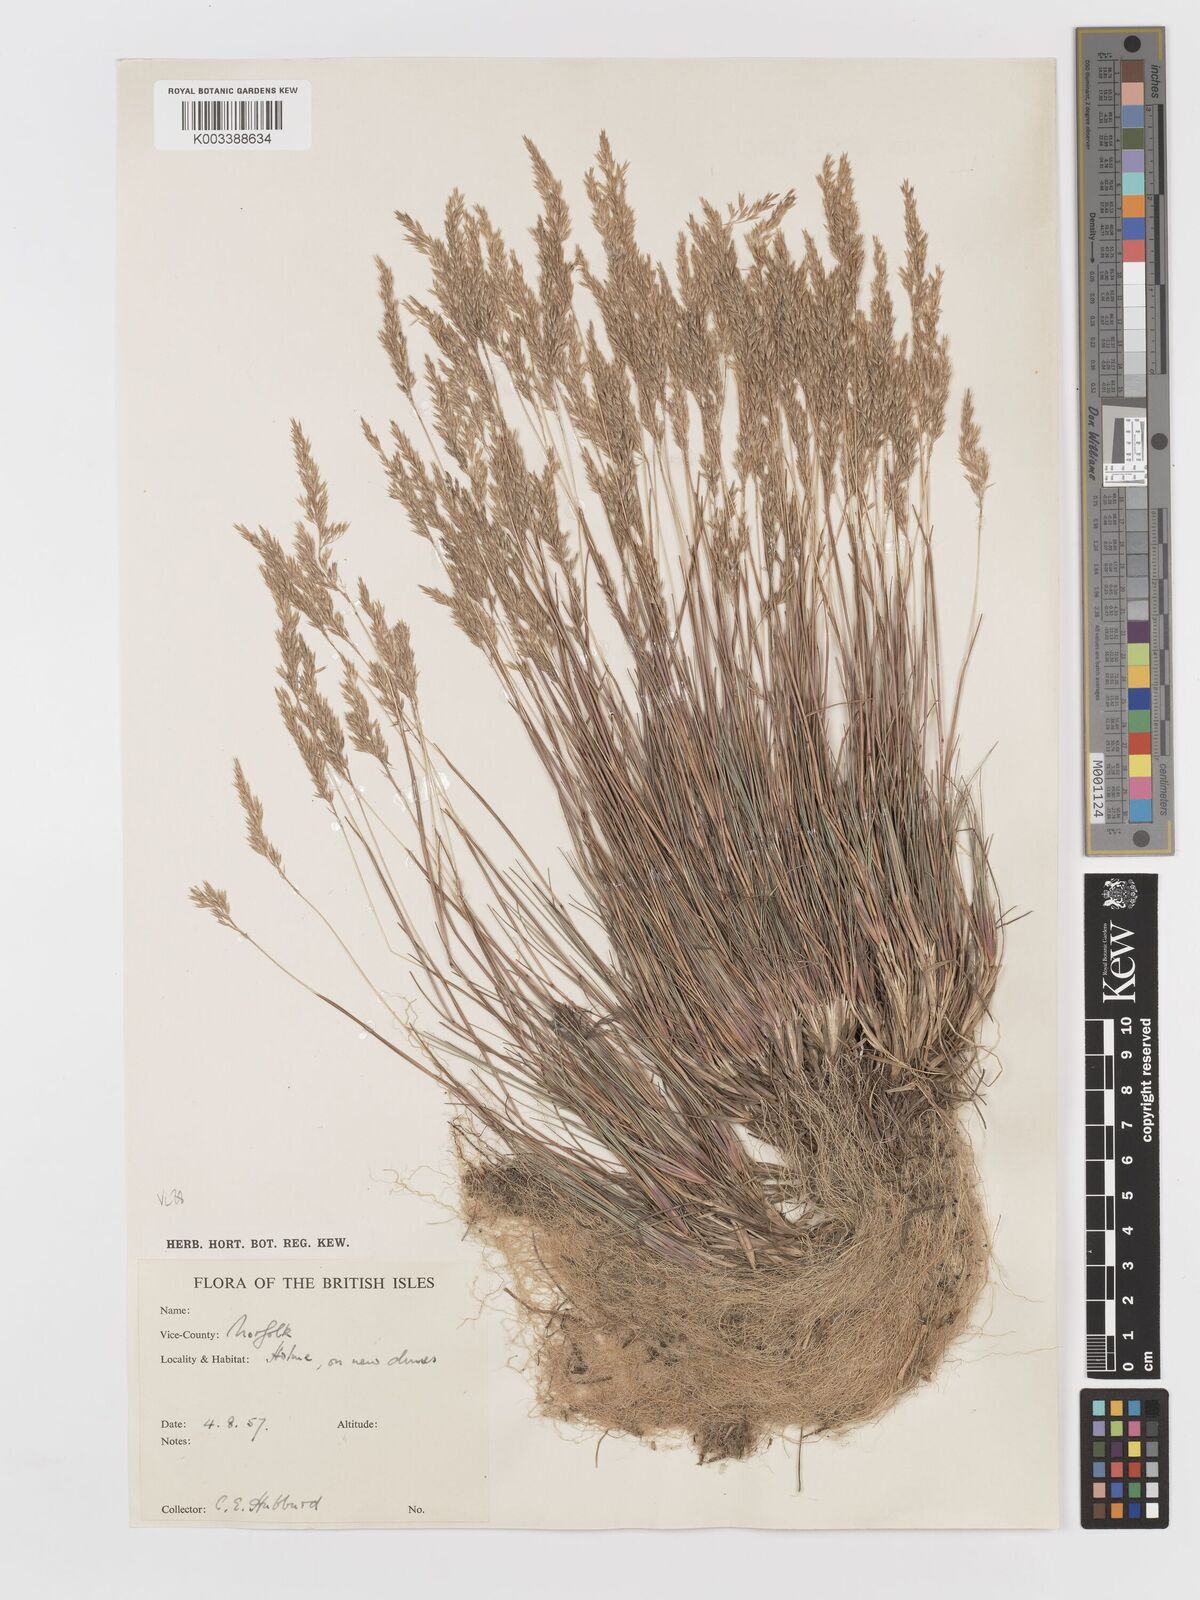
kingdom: Plantae
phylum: Tracheophyta
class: Liliopsida
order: Poales
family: Poaceae
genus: Corynephorus
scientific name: Corynephorus canescens
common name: Grey hair-grass
